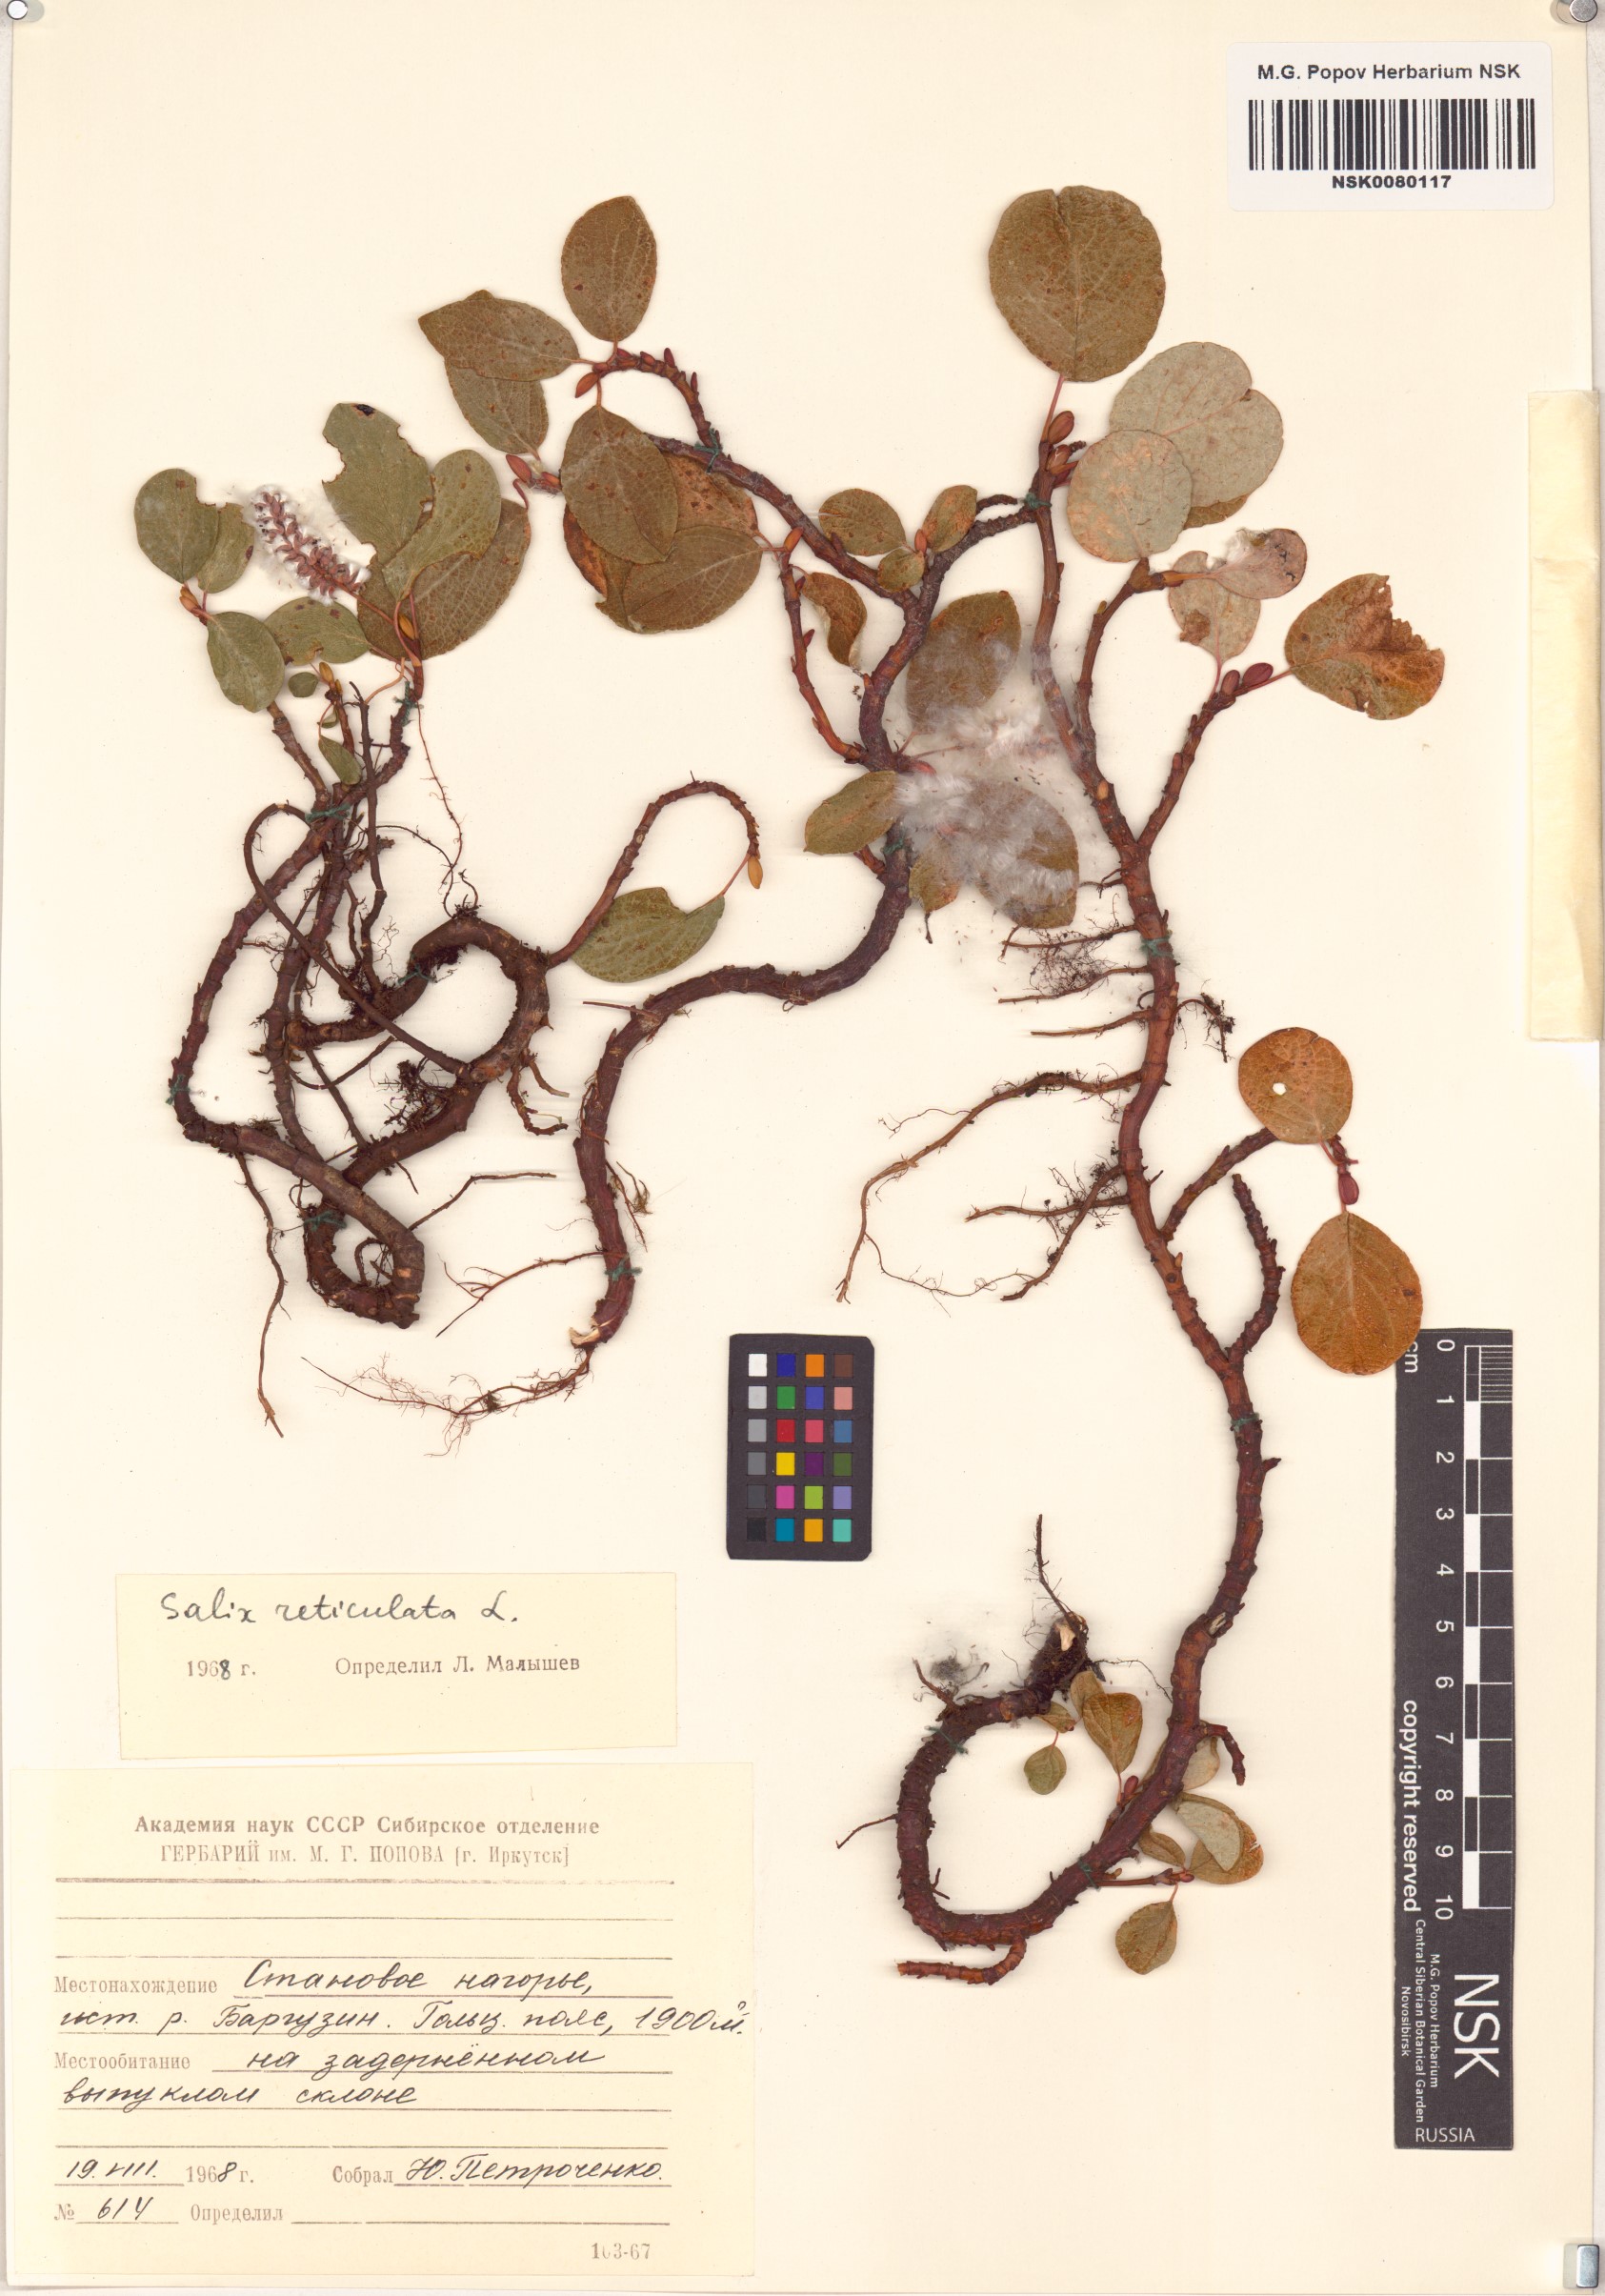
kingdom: Plantae
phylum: Tracheophyta
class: Magnoliopsida
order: Malpighiales
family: Salicaceae
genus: Salix
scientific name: Salix reticulata
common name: Net-leaved willow
